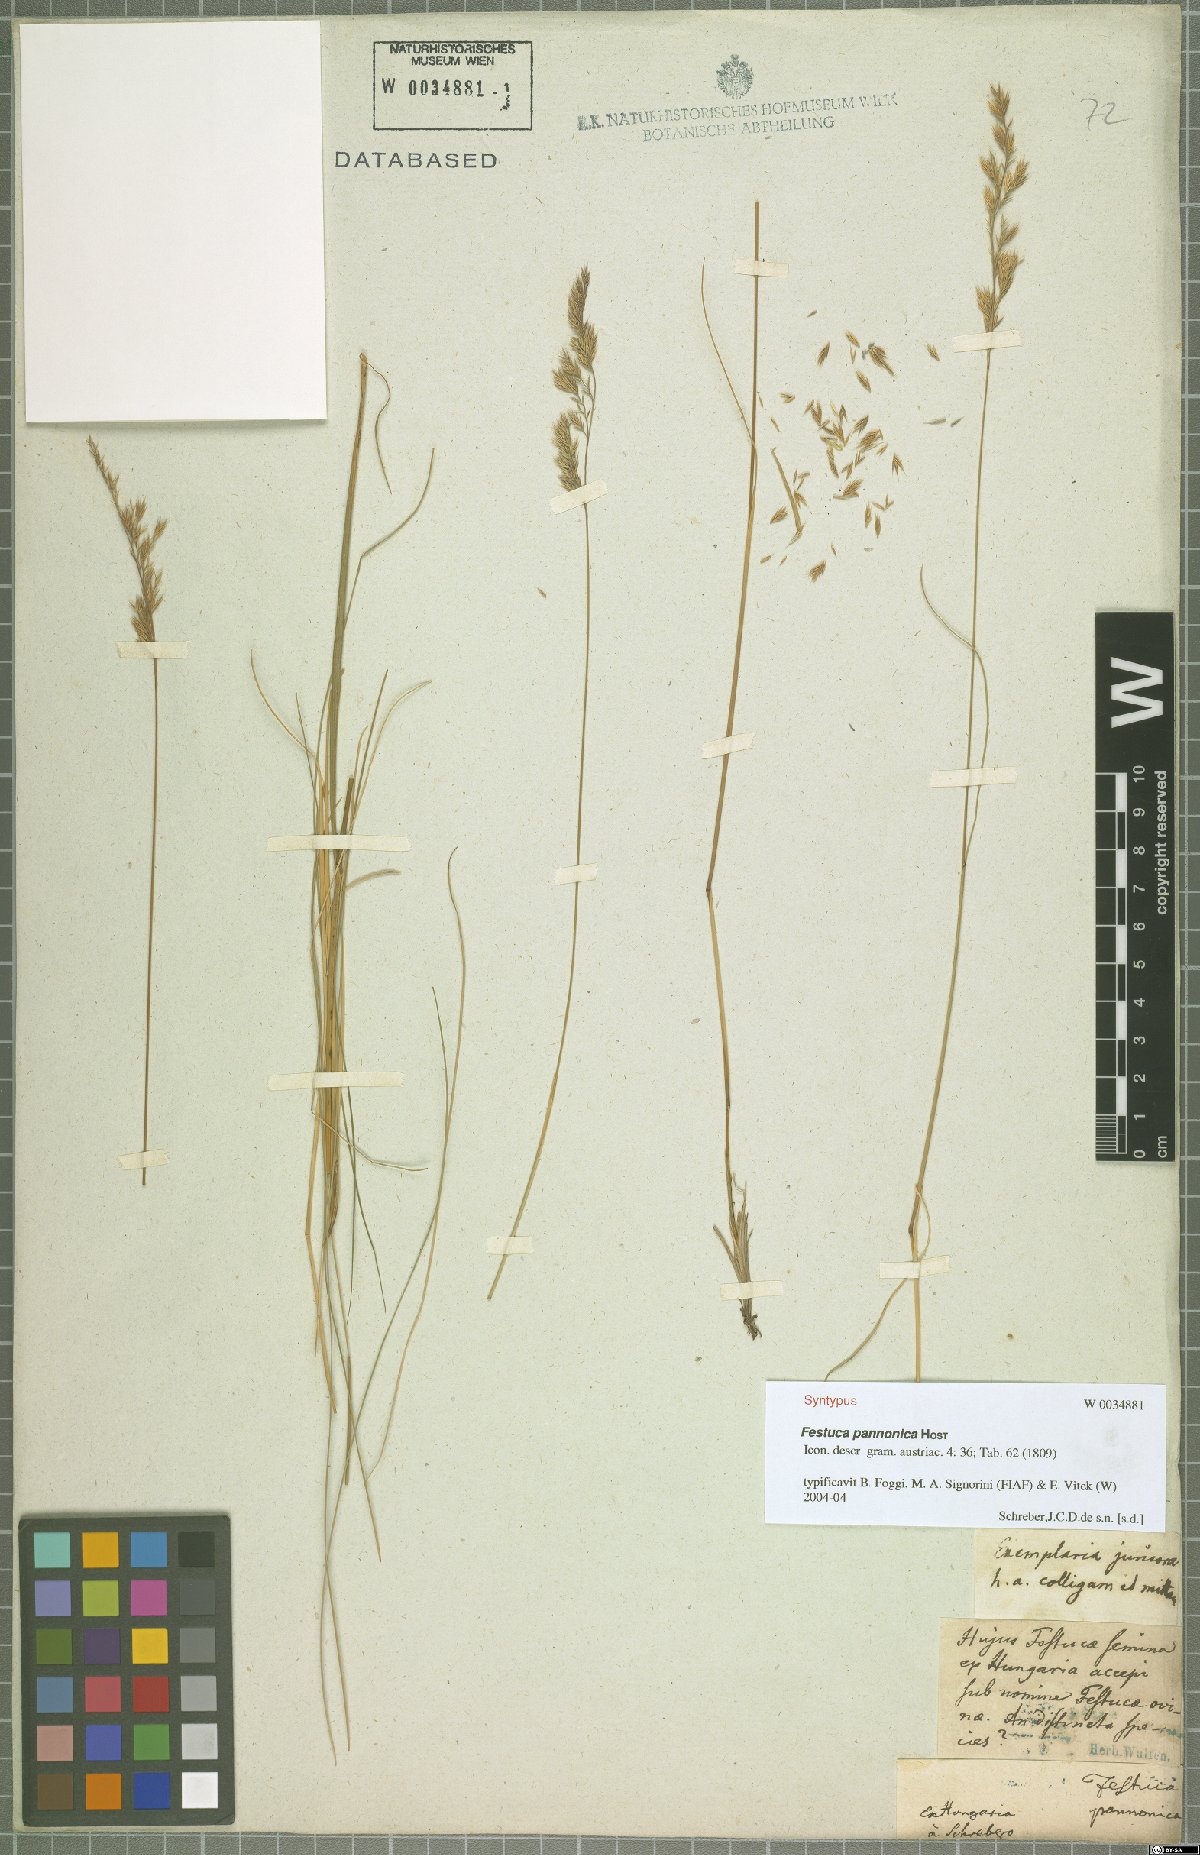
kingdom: Plantae
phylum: Tracheophyta
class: Liliopsida
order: Poales
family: Poaceae
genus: Festuca
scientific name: Festuca valesiaca
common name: Volga fescue
